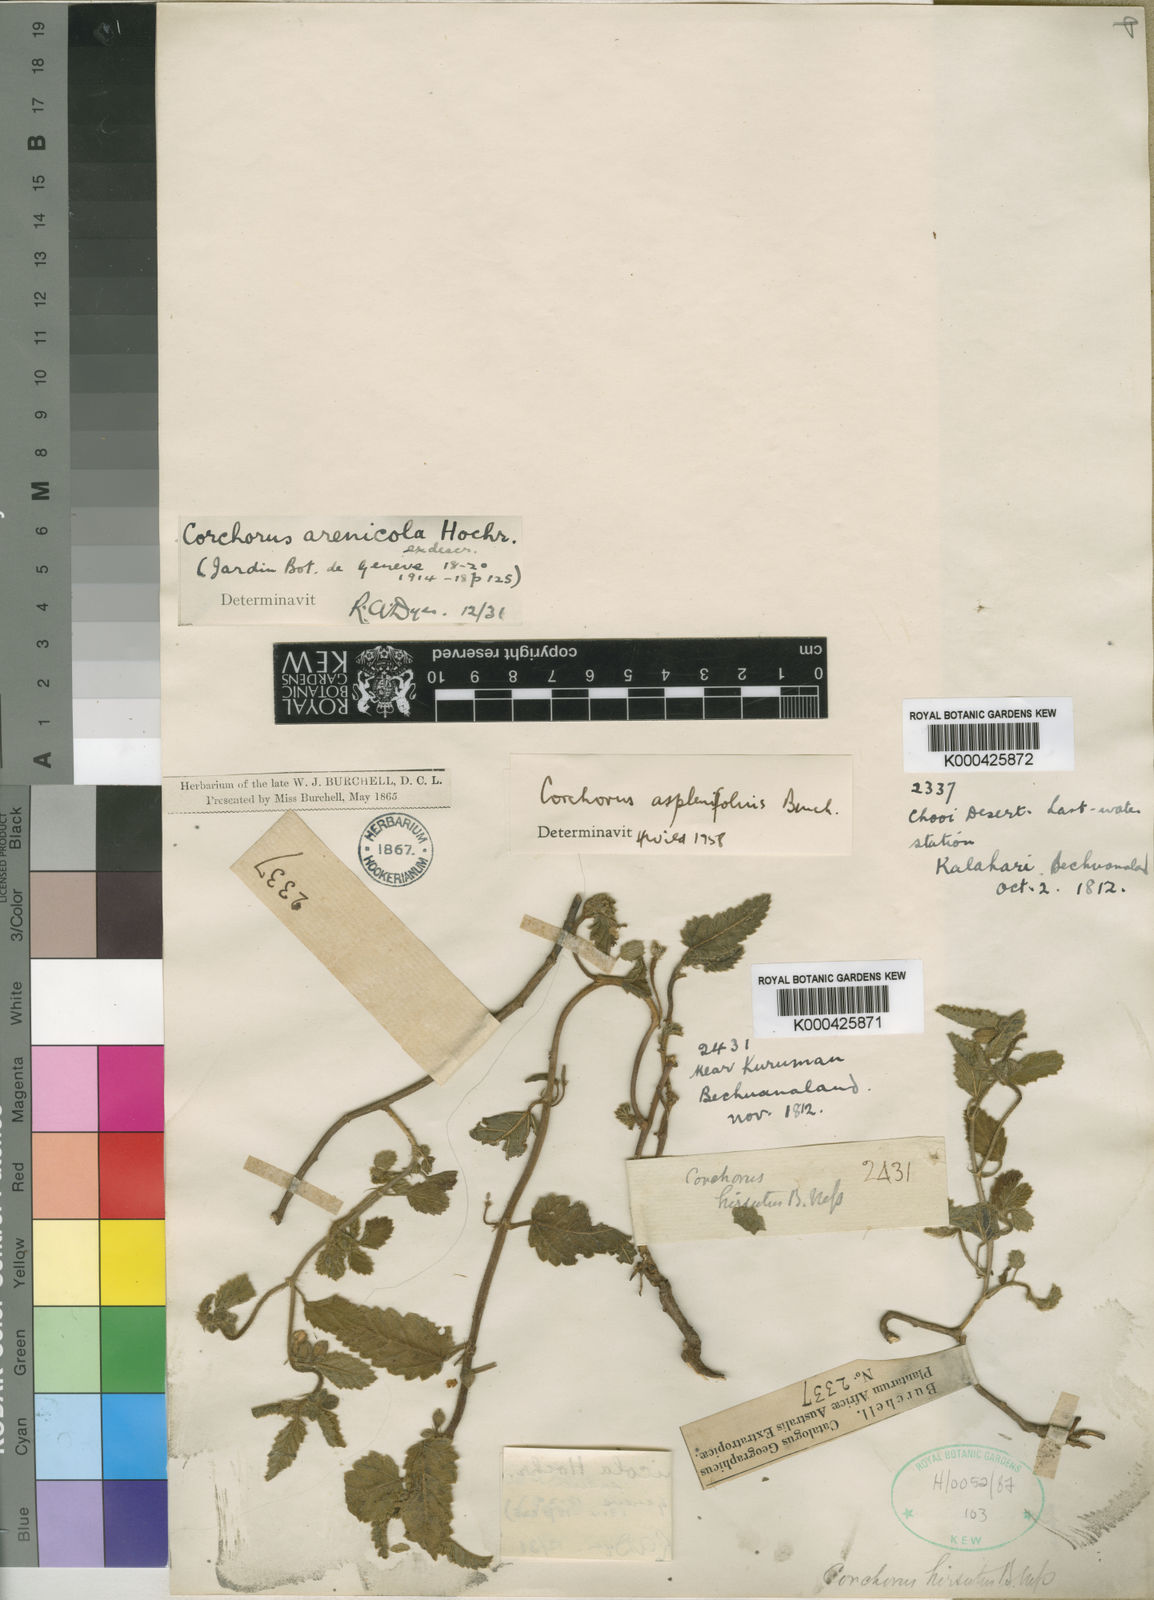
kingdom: Plantae
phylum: Tracheophyta
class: Magnoliopsida
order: Malvales
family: Malvaceae
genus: Corchorus
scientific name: Corchorus asplenifolius
